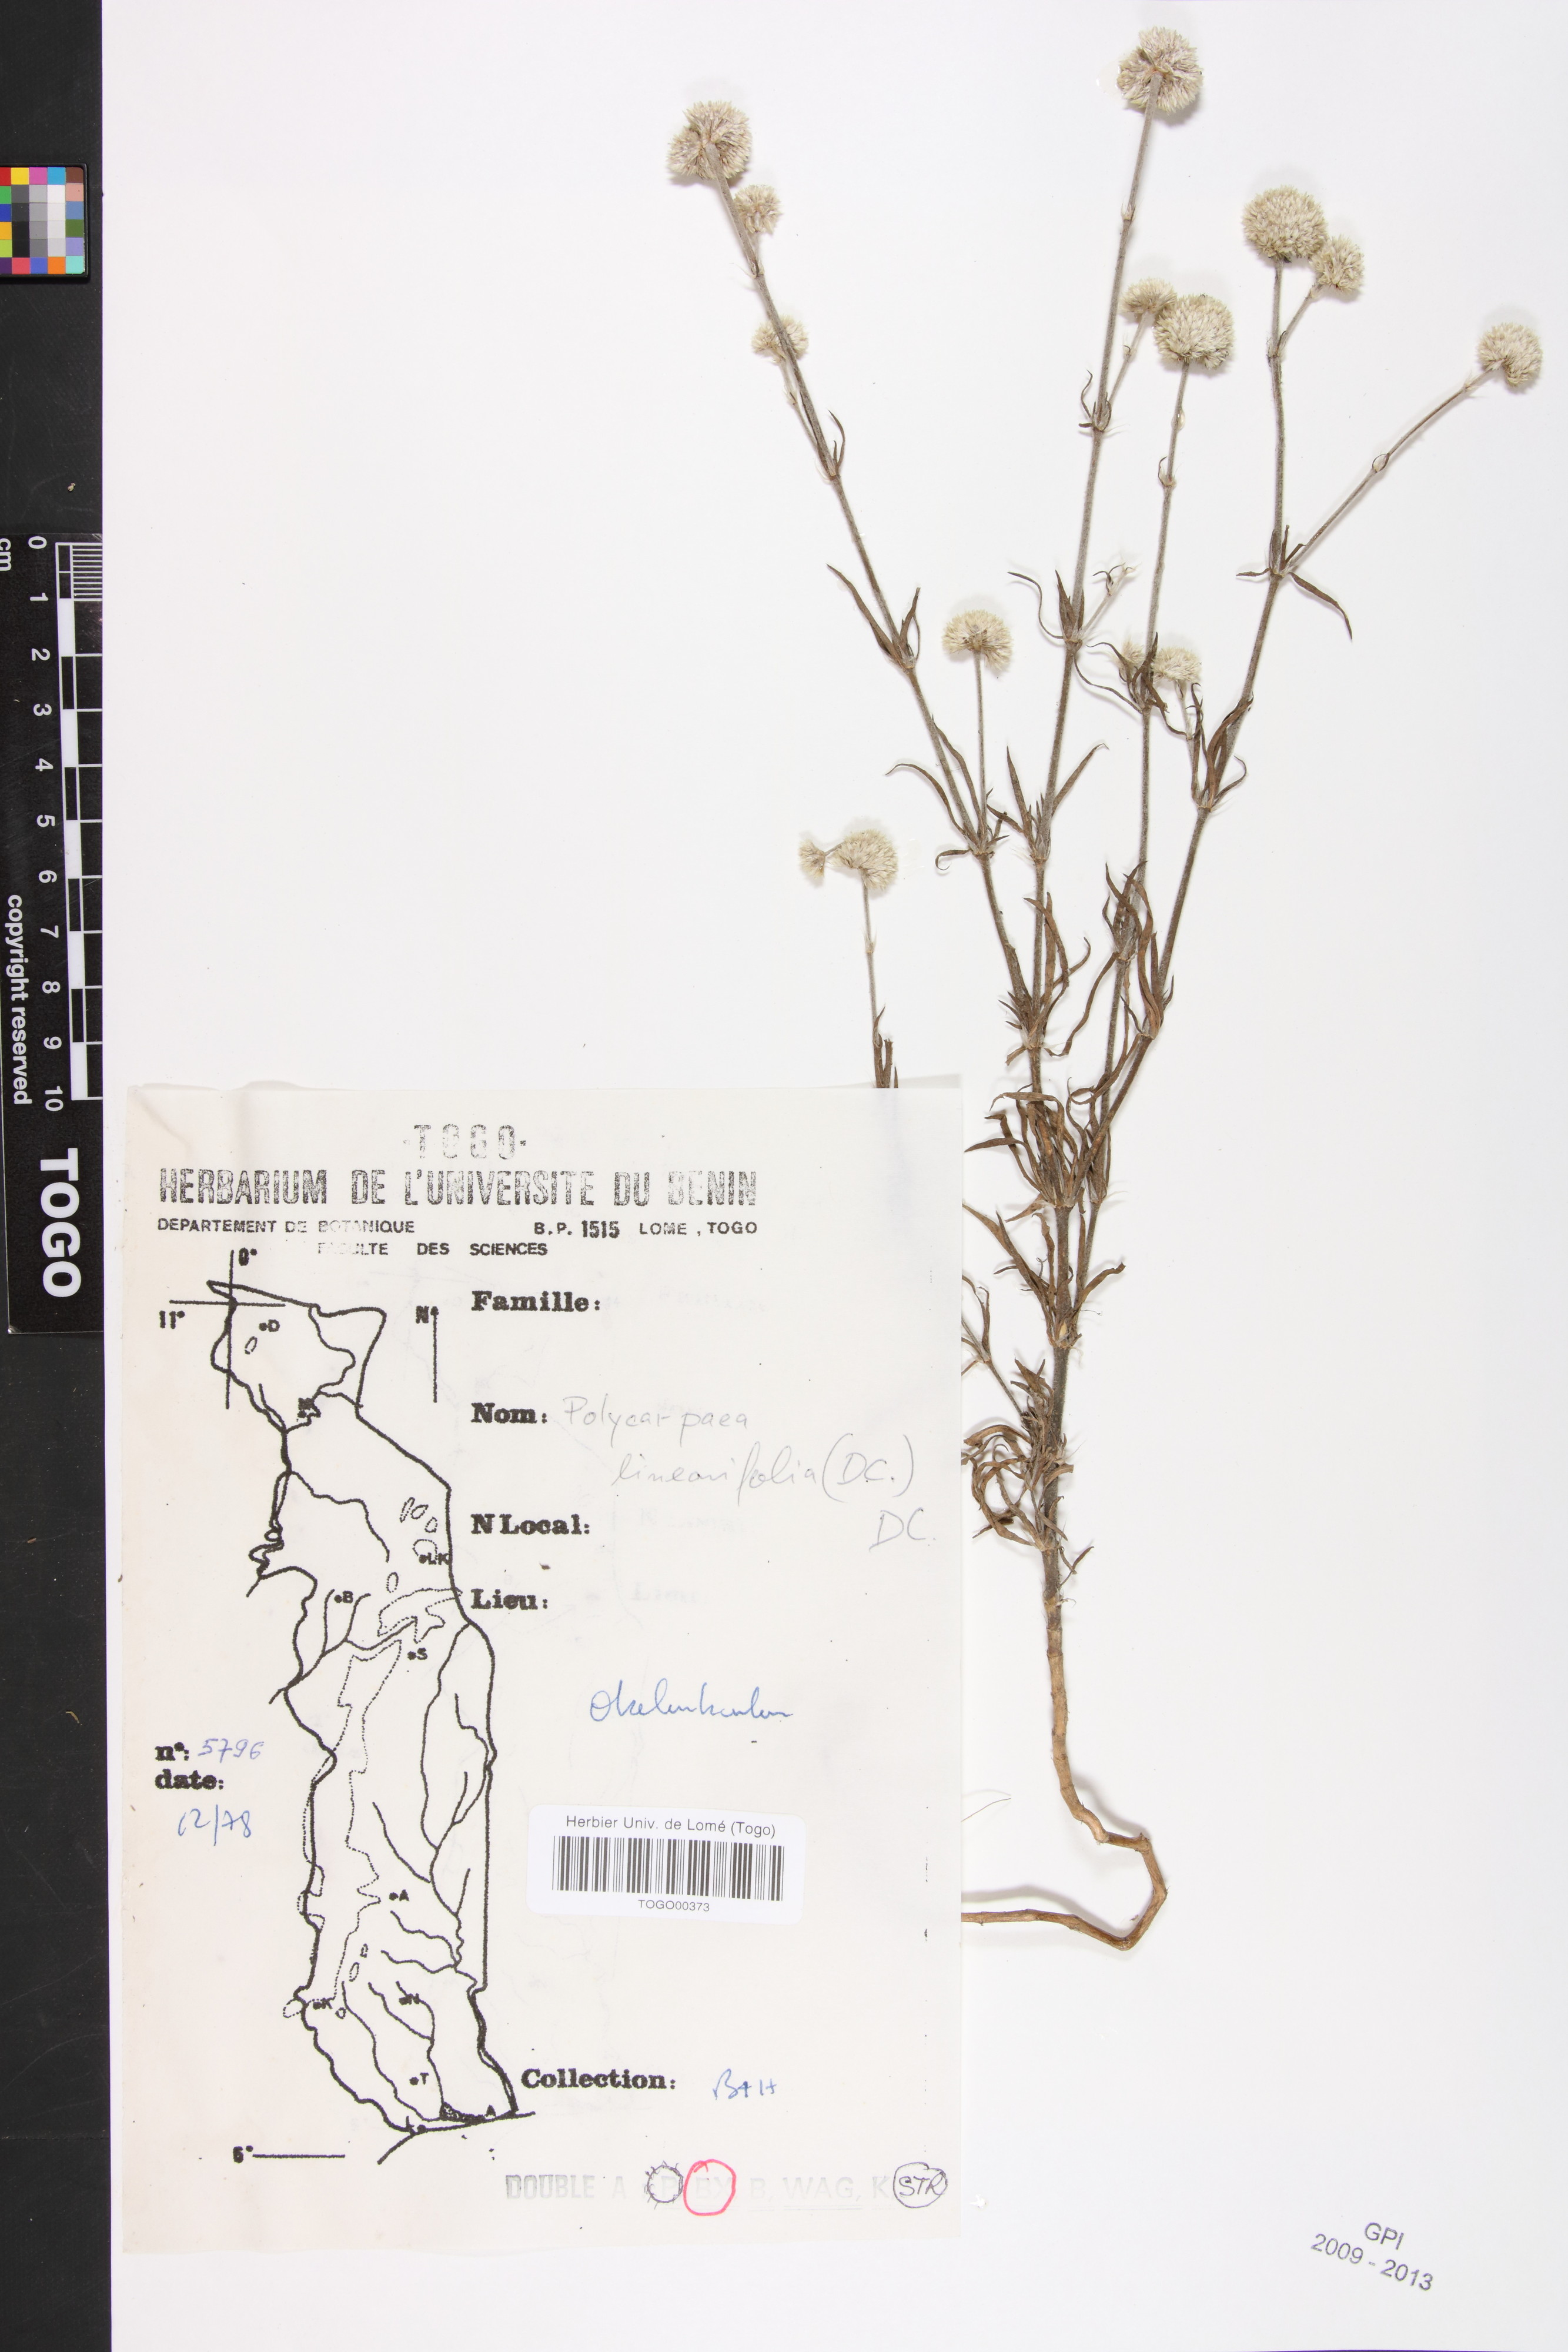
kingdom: Plantae
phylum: Tracheophyta
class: Magnoliopsida
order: Caryophyllales
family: Caryophyllaceae
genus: Polycarpaea
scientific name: Polycarpaea linearifolia
